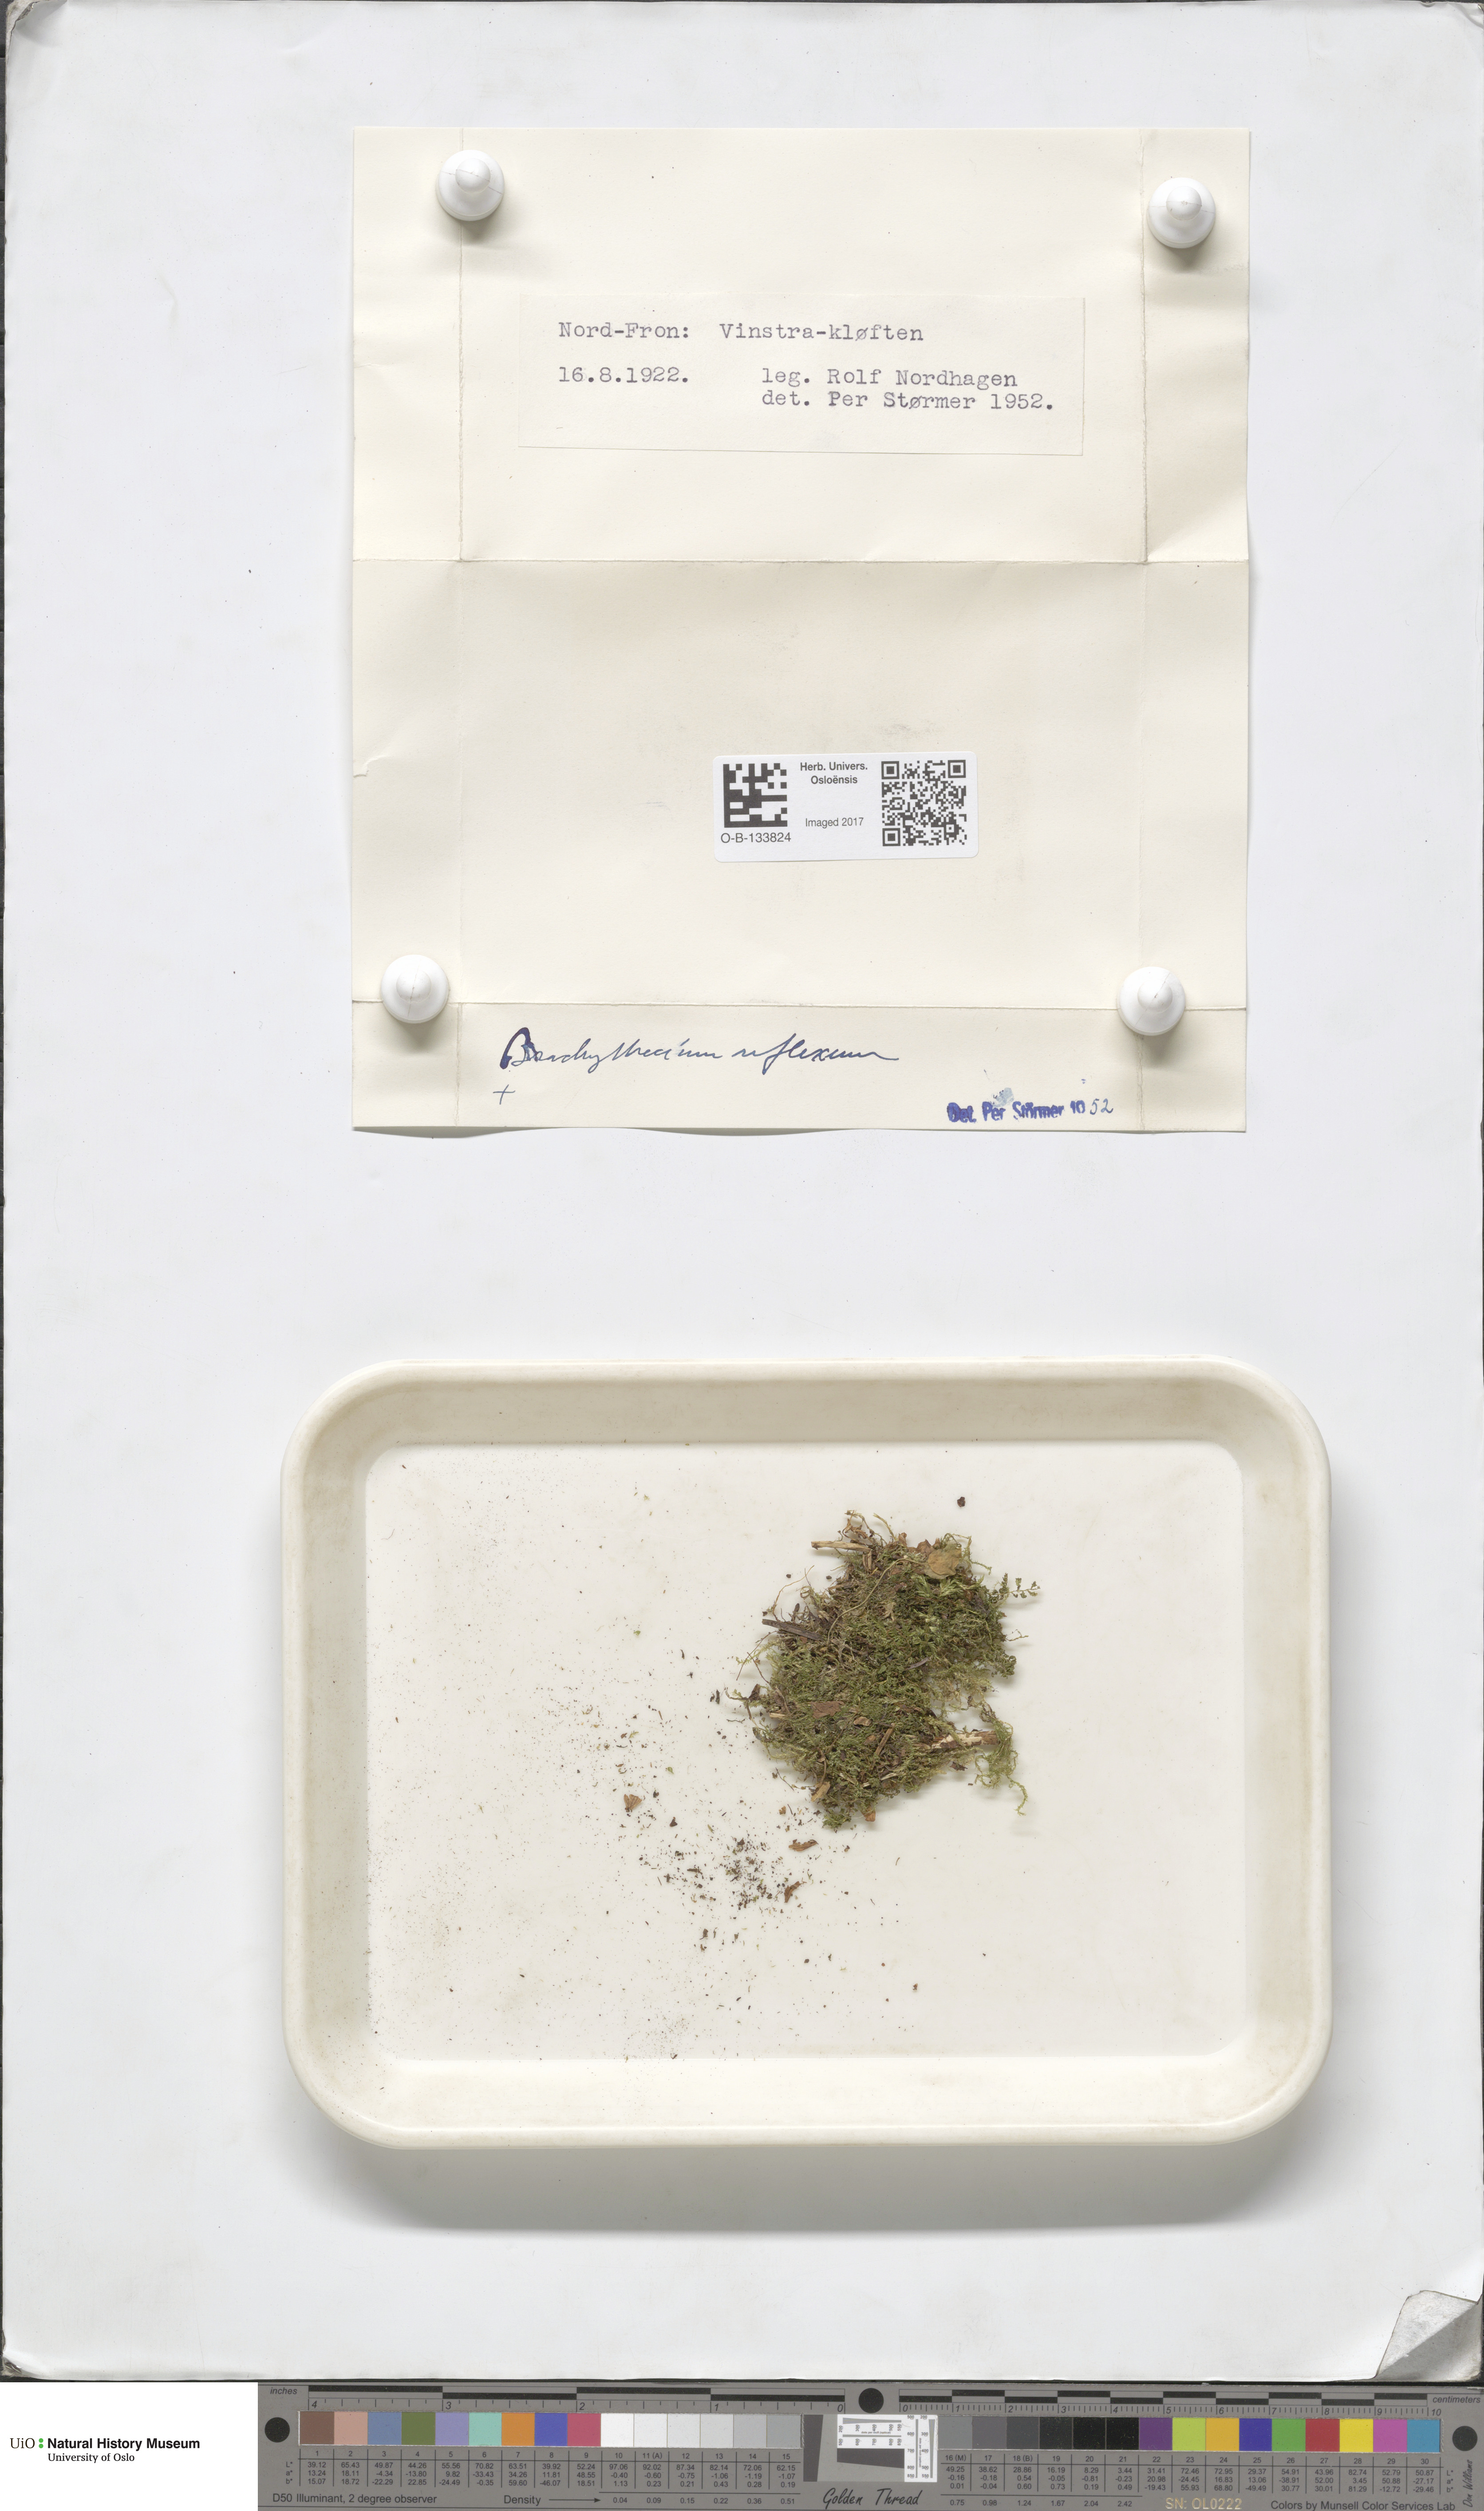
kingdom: Plantae
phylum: Bryophyta
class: Bryopsida
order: Hypnales
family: Brachytheciaceae
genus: Sciuro-hypnum
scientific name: Sciuro-hypnum reflexum
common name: Reflexed feather-moss
